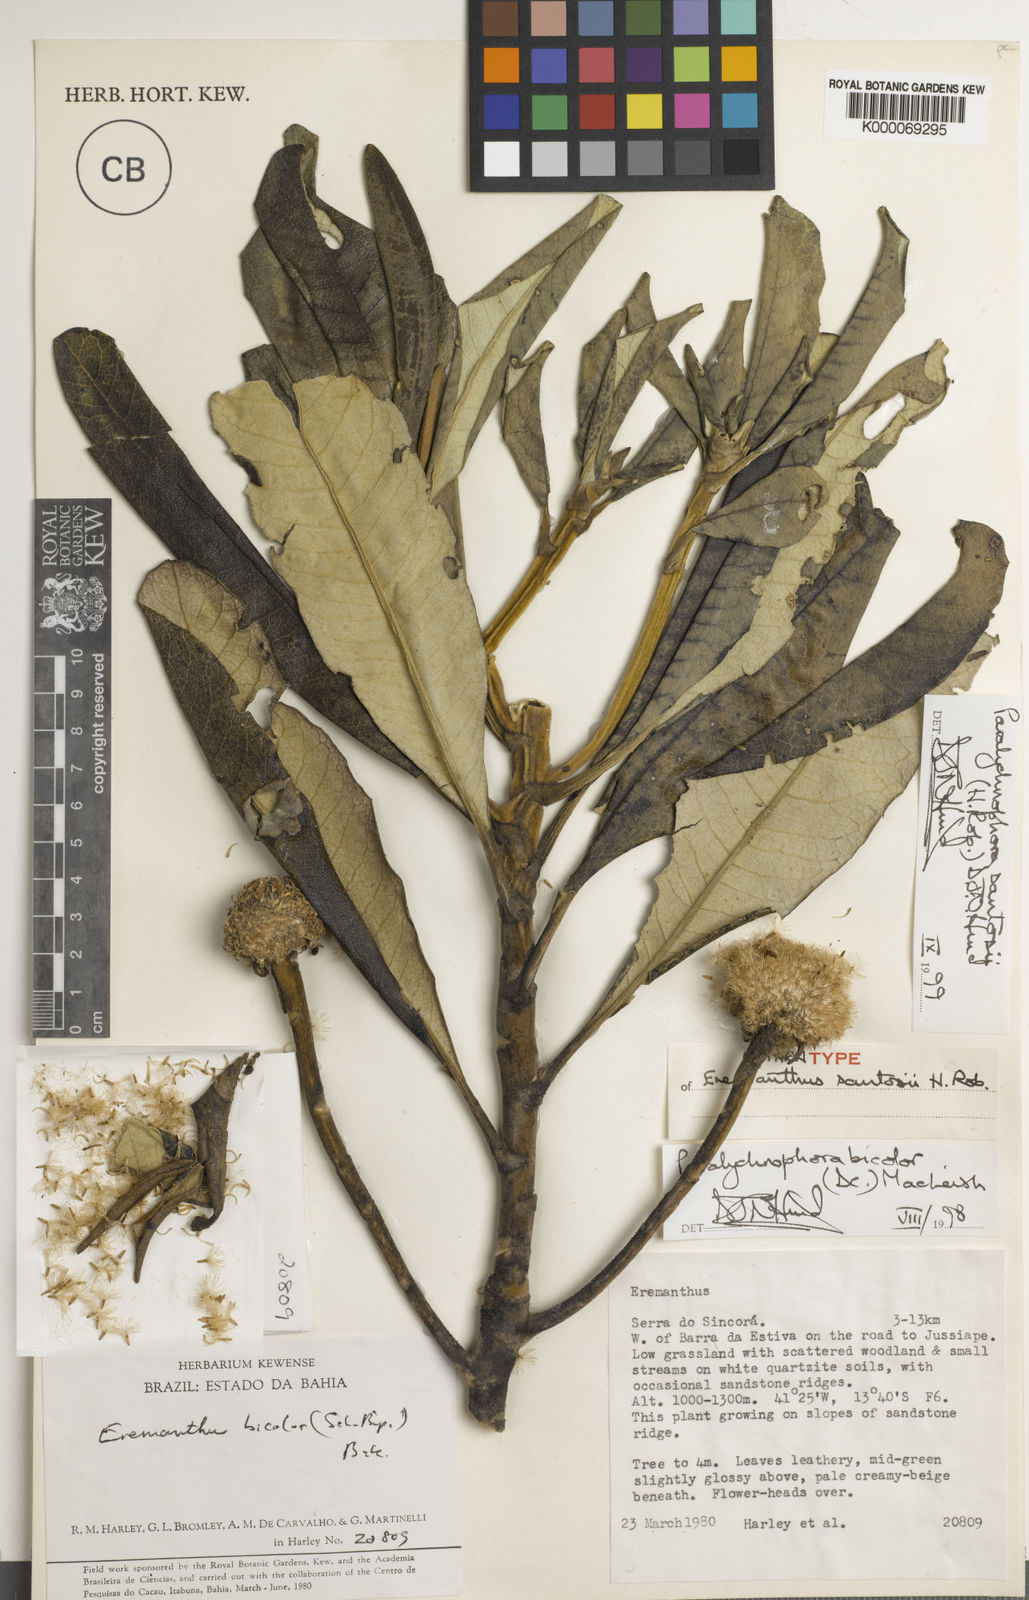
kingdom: Plantae
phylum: Tracheophyta
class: Magnoliopsida
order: Asterales
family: Asteraceae
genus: Paralychnophora
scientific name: Paralychnophora santosii
